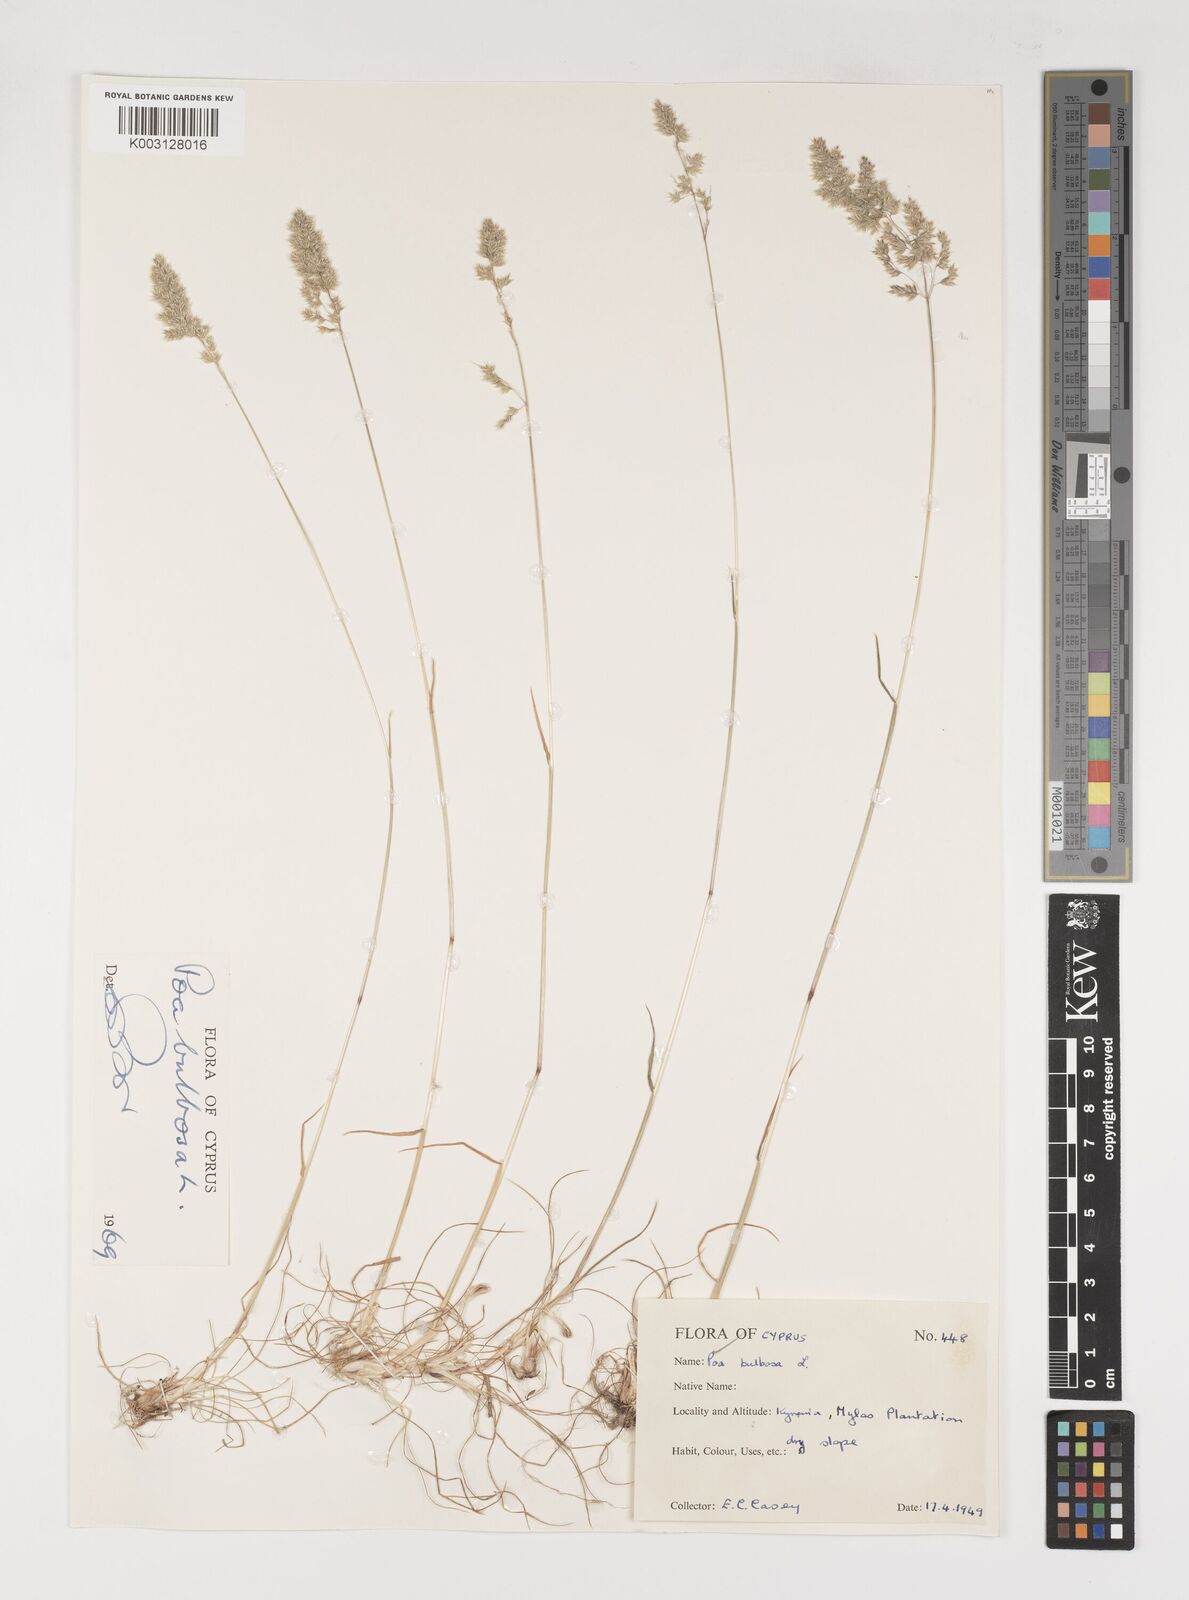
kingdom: Plantae
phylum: Tracheophyta
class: Liliopsida
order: Poales
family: Poaceae
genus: Poa
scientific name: Poa bulbosa
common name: Bulbous bluegrass
